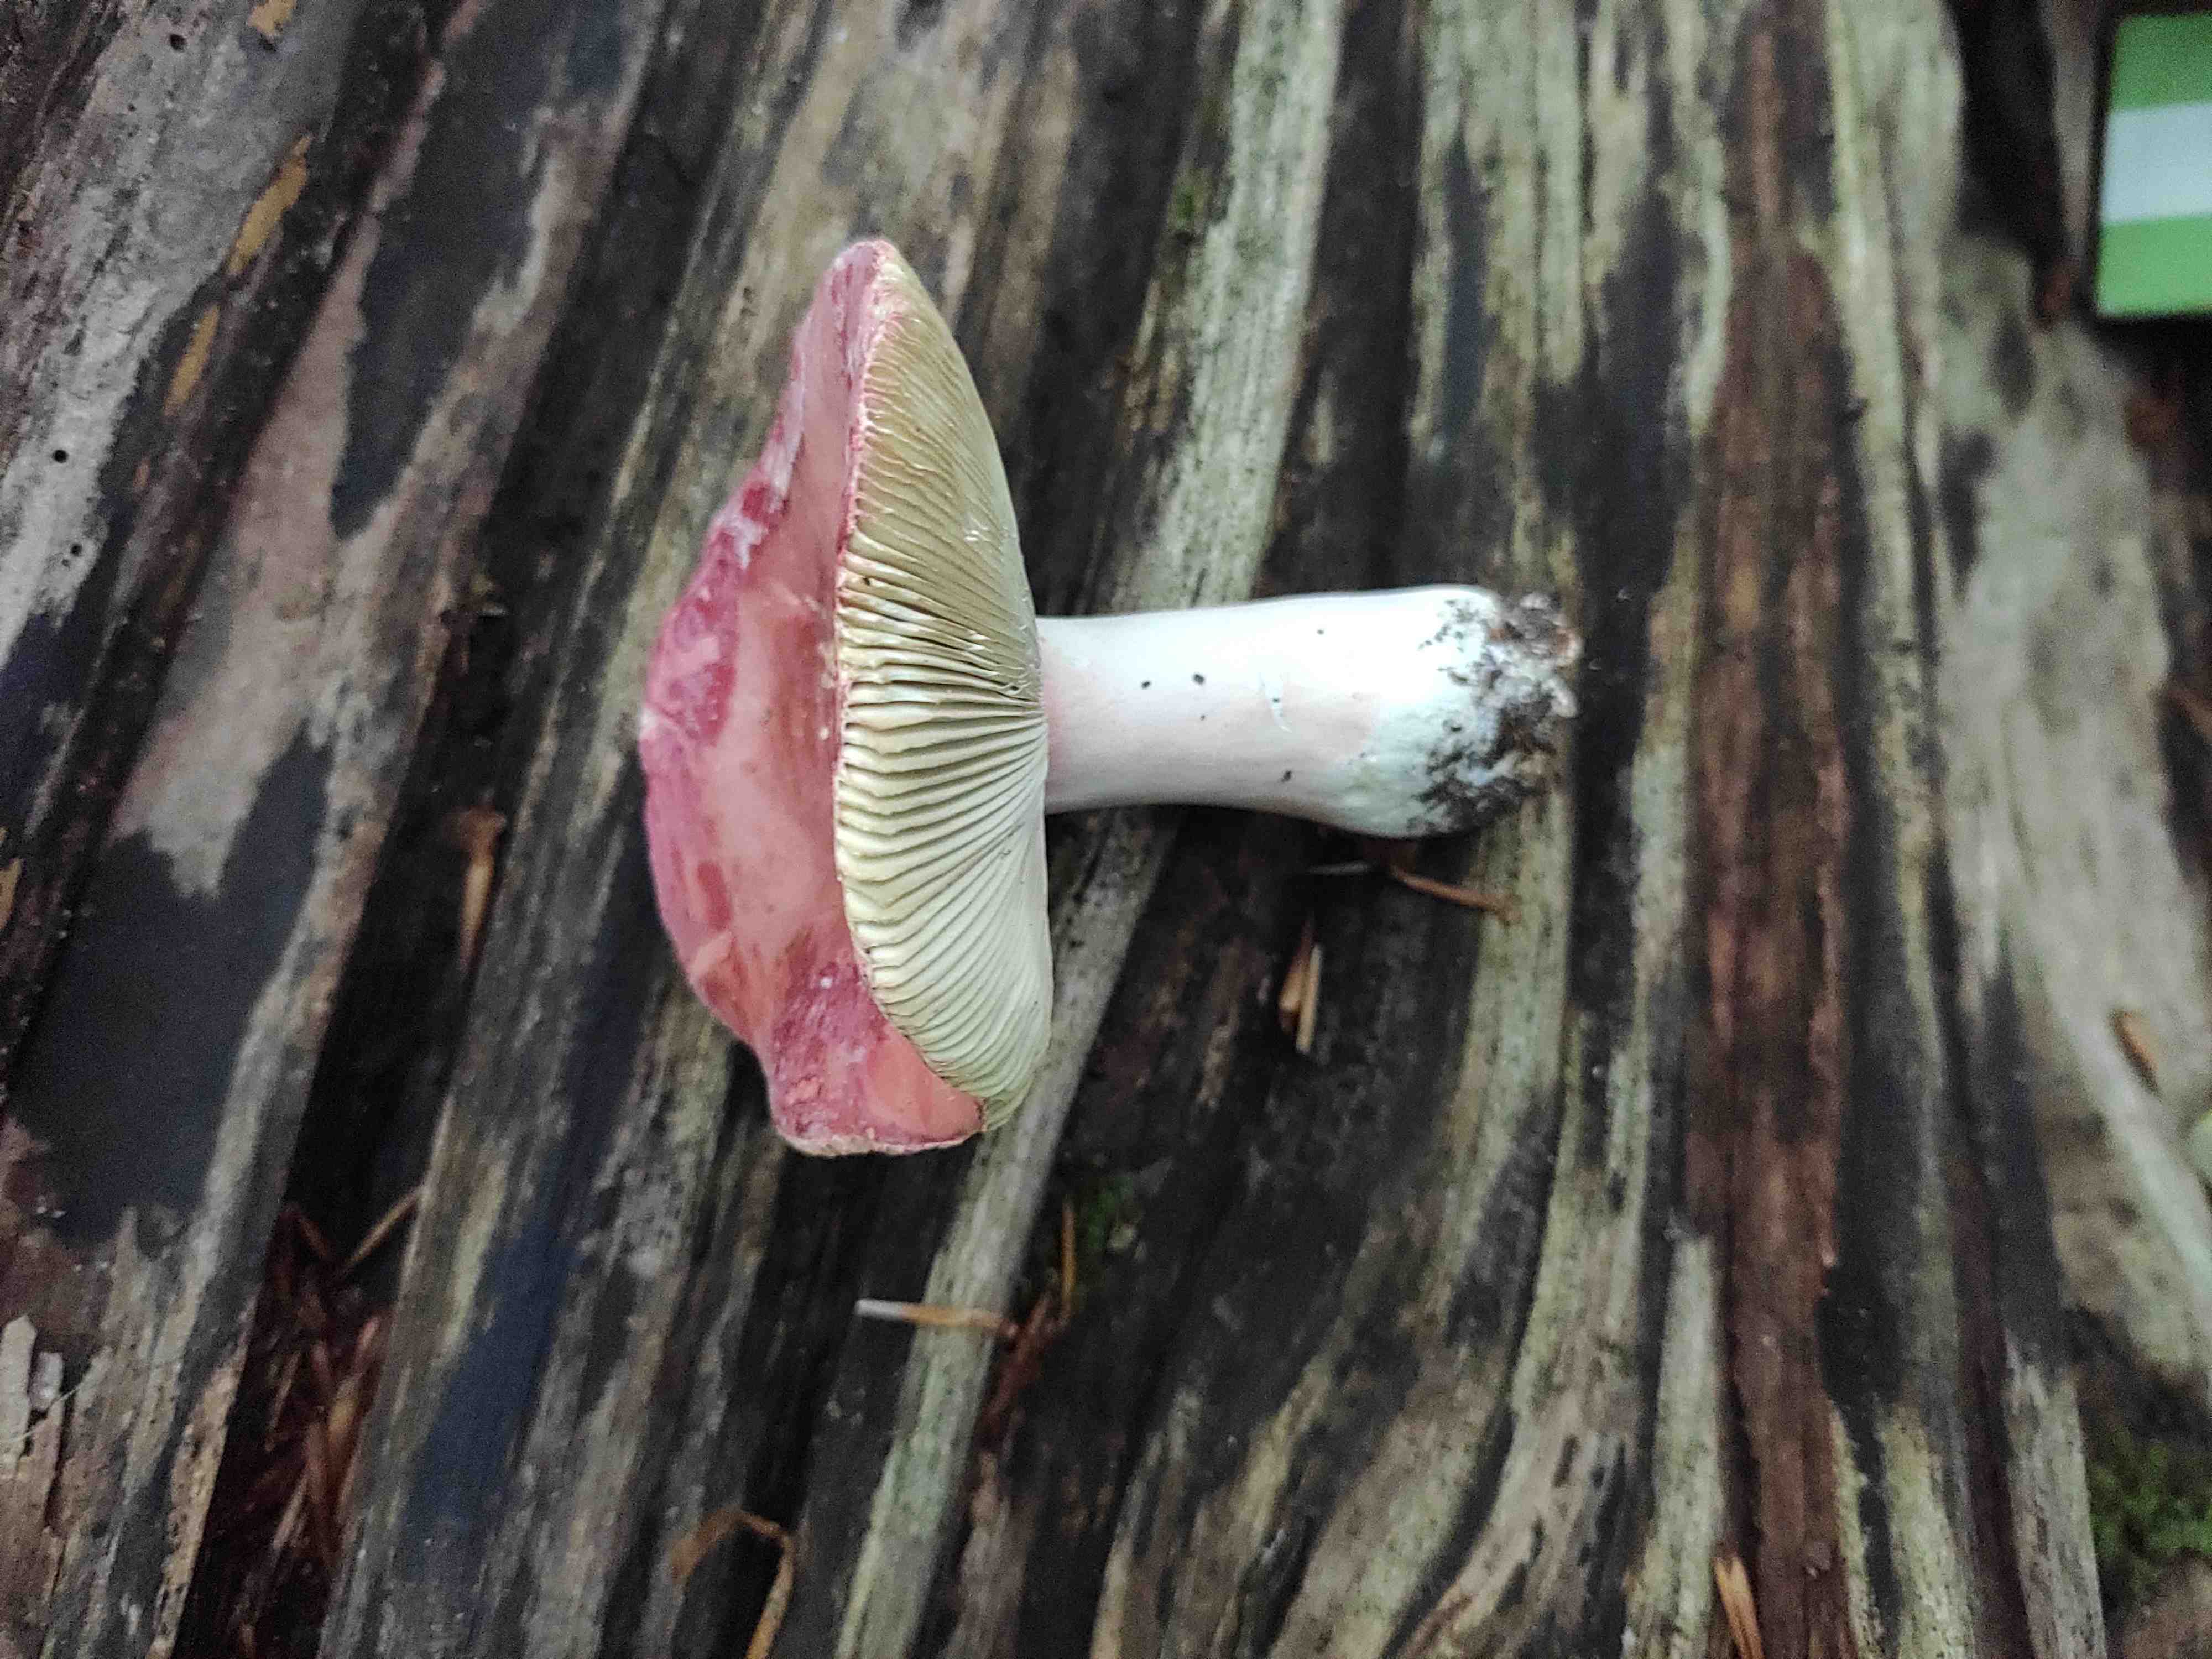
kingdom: Fungi
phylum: Basidiomycota
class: Agaricomycetes
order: Russulales
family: Russulaceae
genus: Russula
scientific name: Russula rosea
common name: fastkødet skørhat
